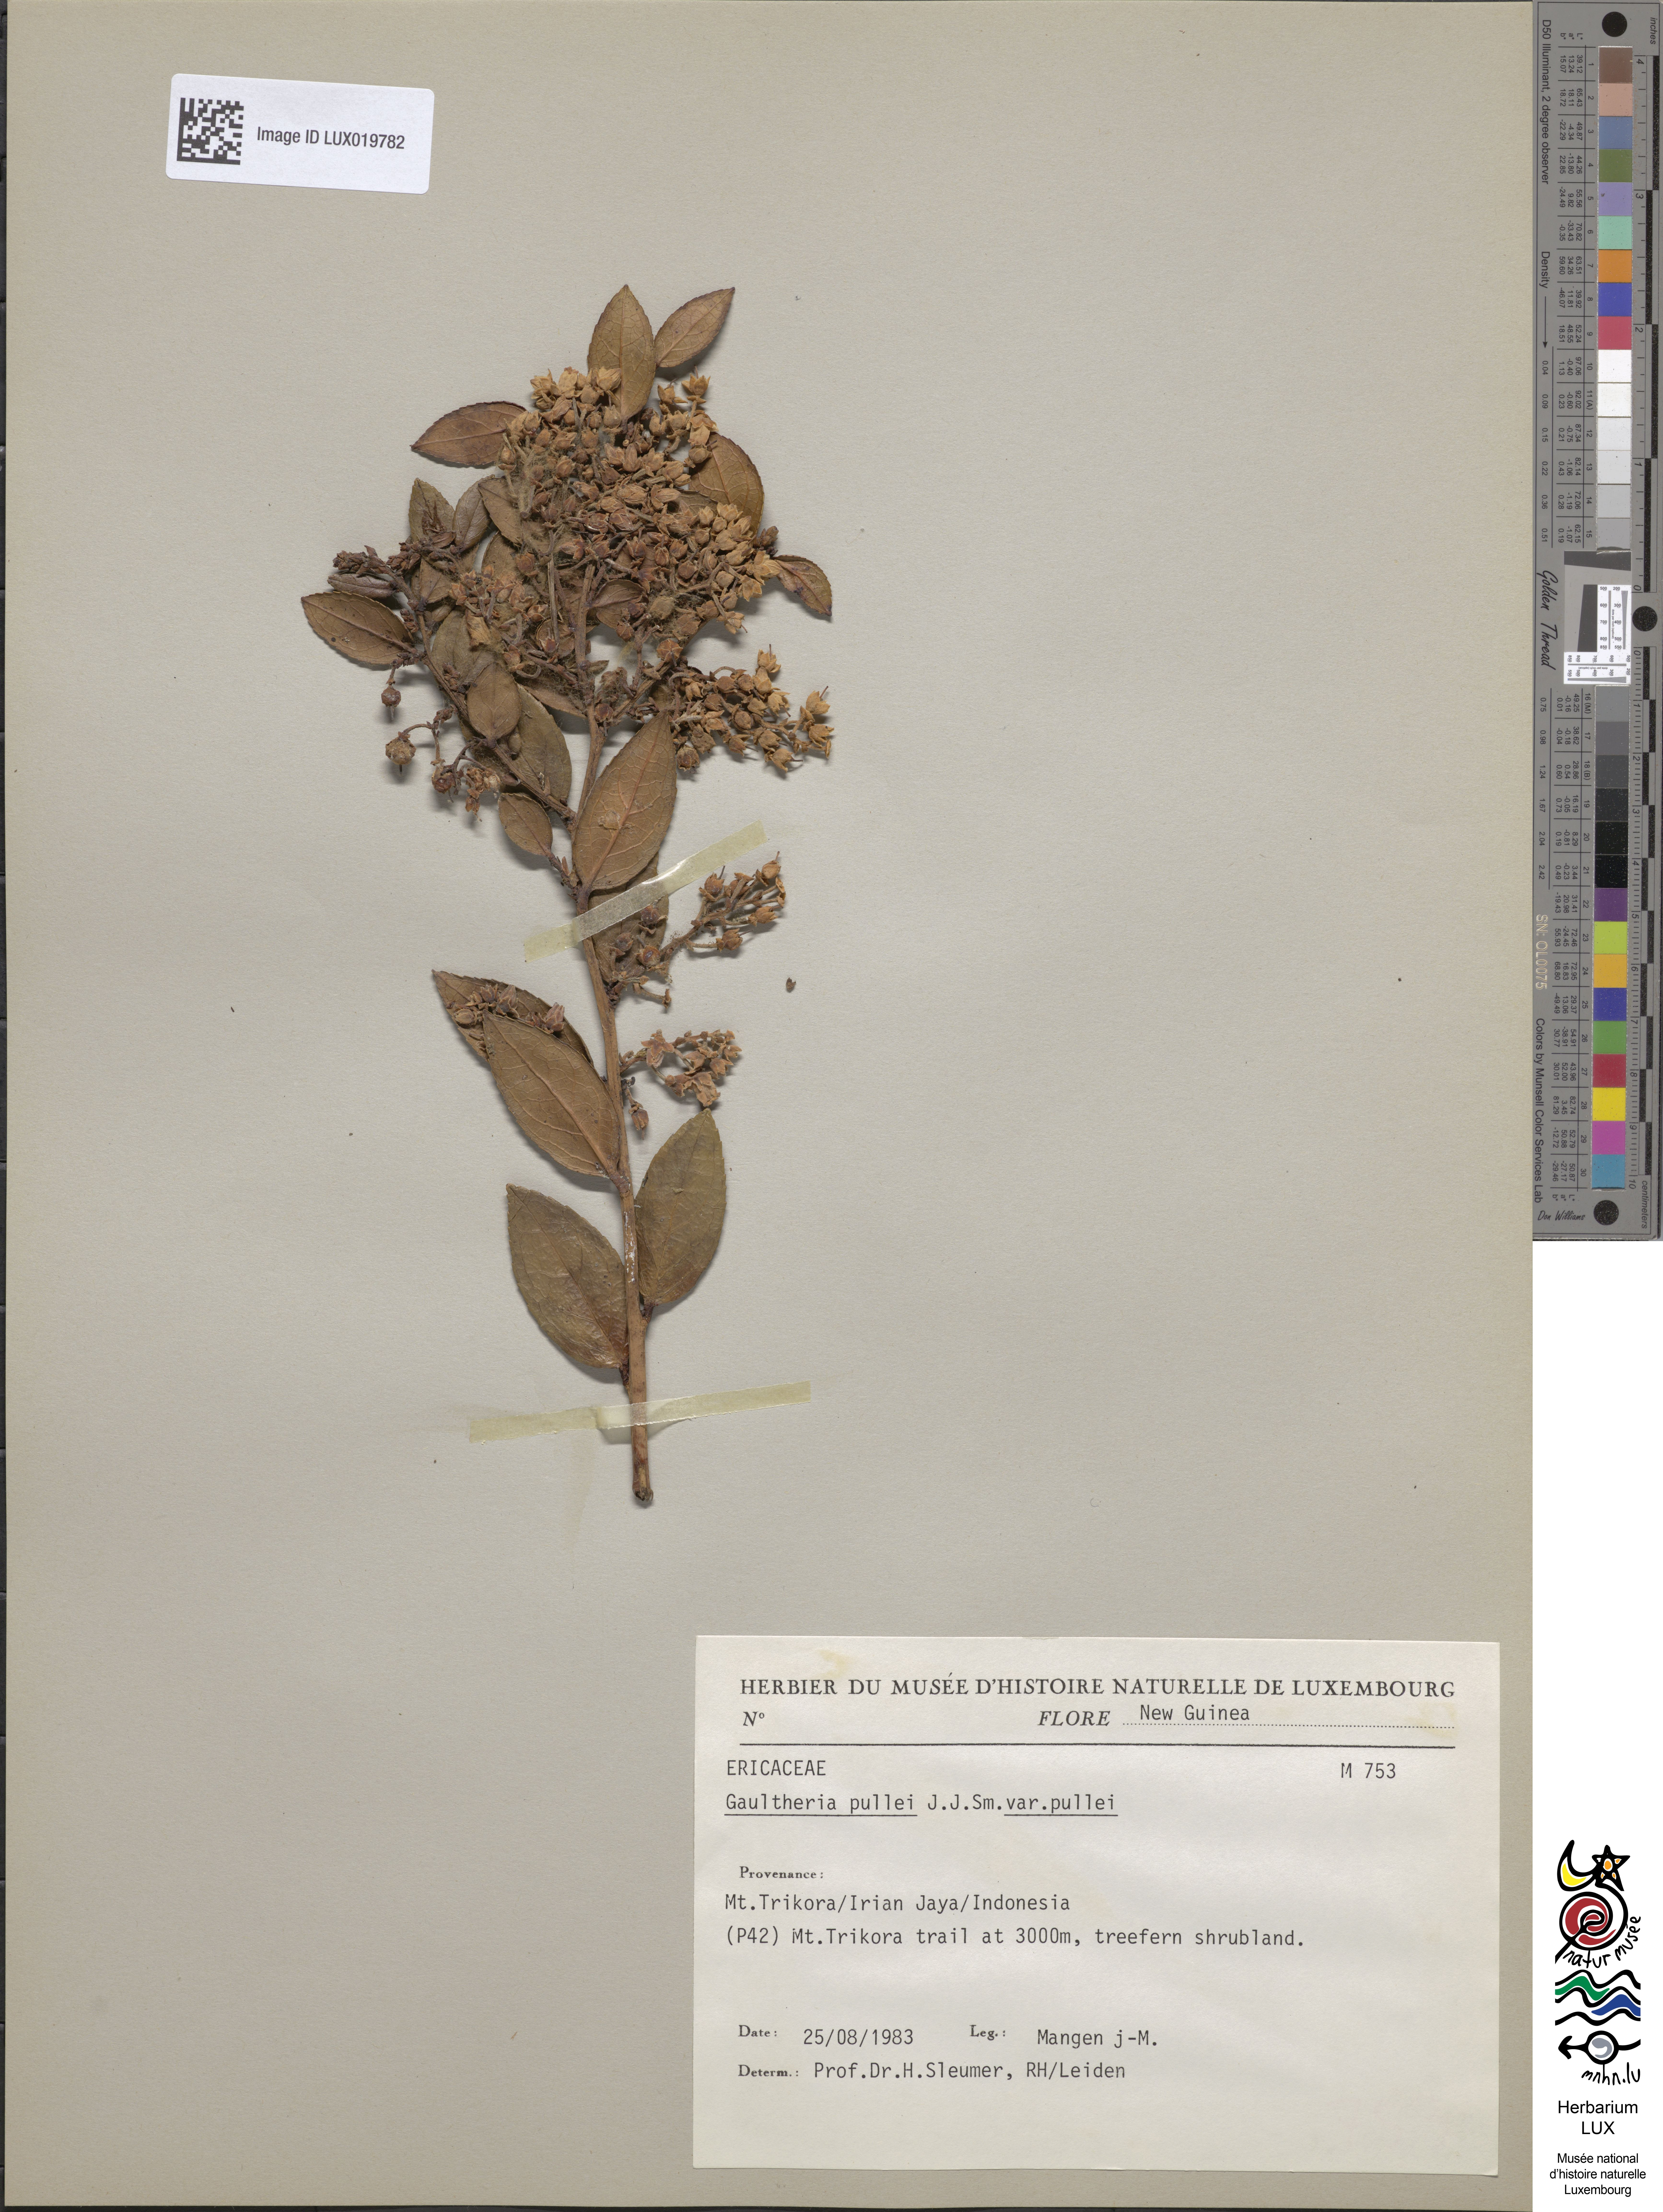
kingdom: Plantae
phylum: Tracheophyta
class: Magnoliopsida
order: Ericales
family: Ericaceae
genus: Gaultheria
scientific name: Gaultheria pullei
